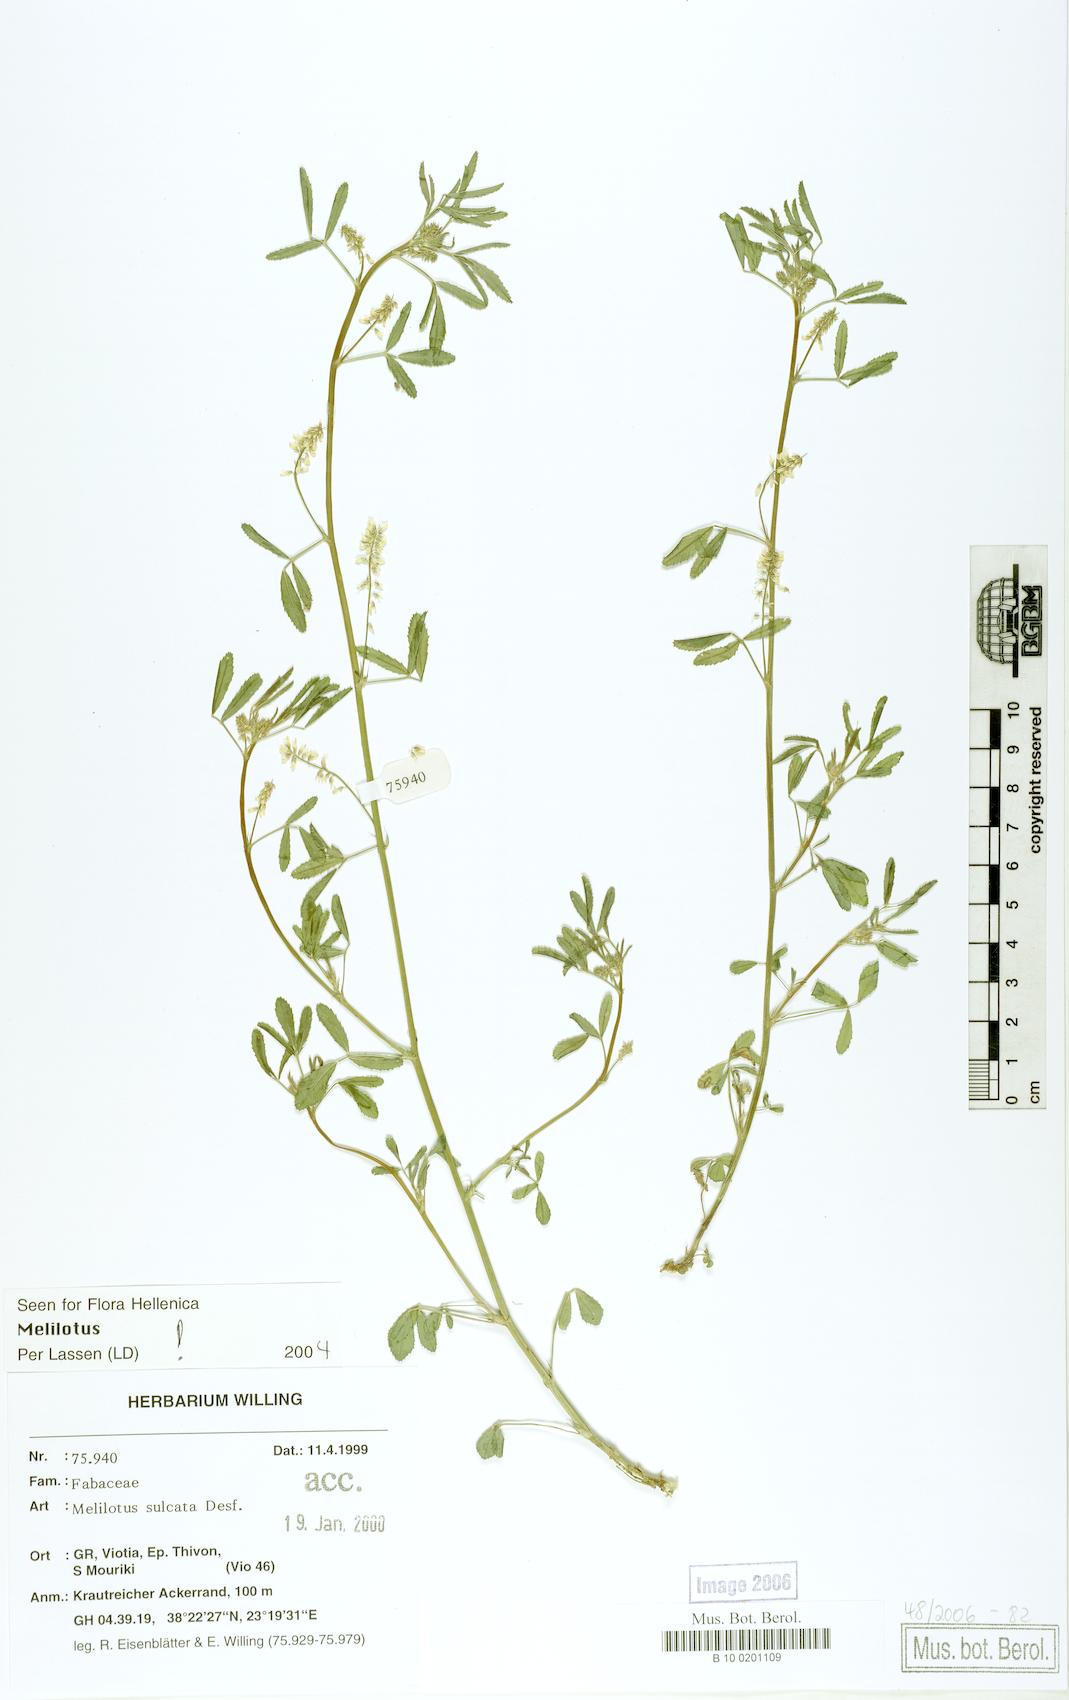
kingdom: Plantae
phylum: Tracheophyta
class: Magnoliopsida
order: Fabales
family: Fabaceae
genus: Melilotus
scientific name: Melilotus sulcatus
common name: Furrowed melilot
